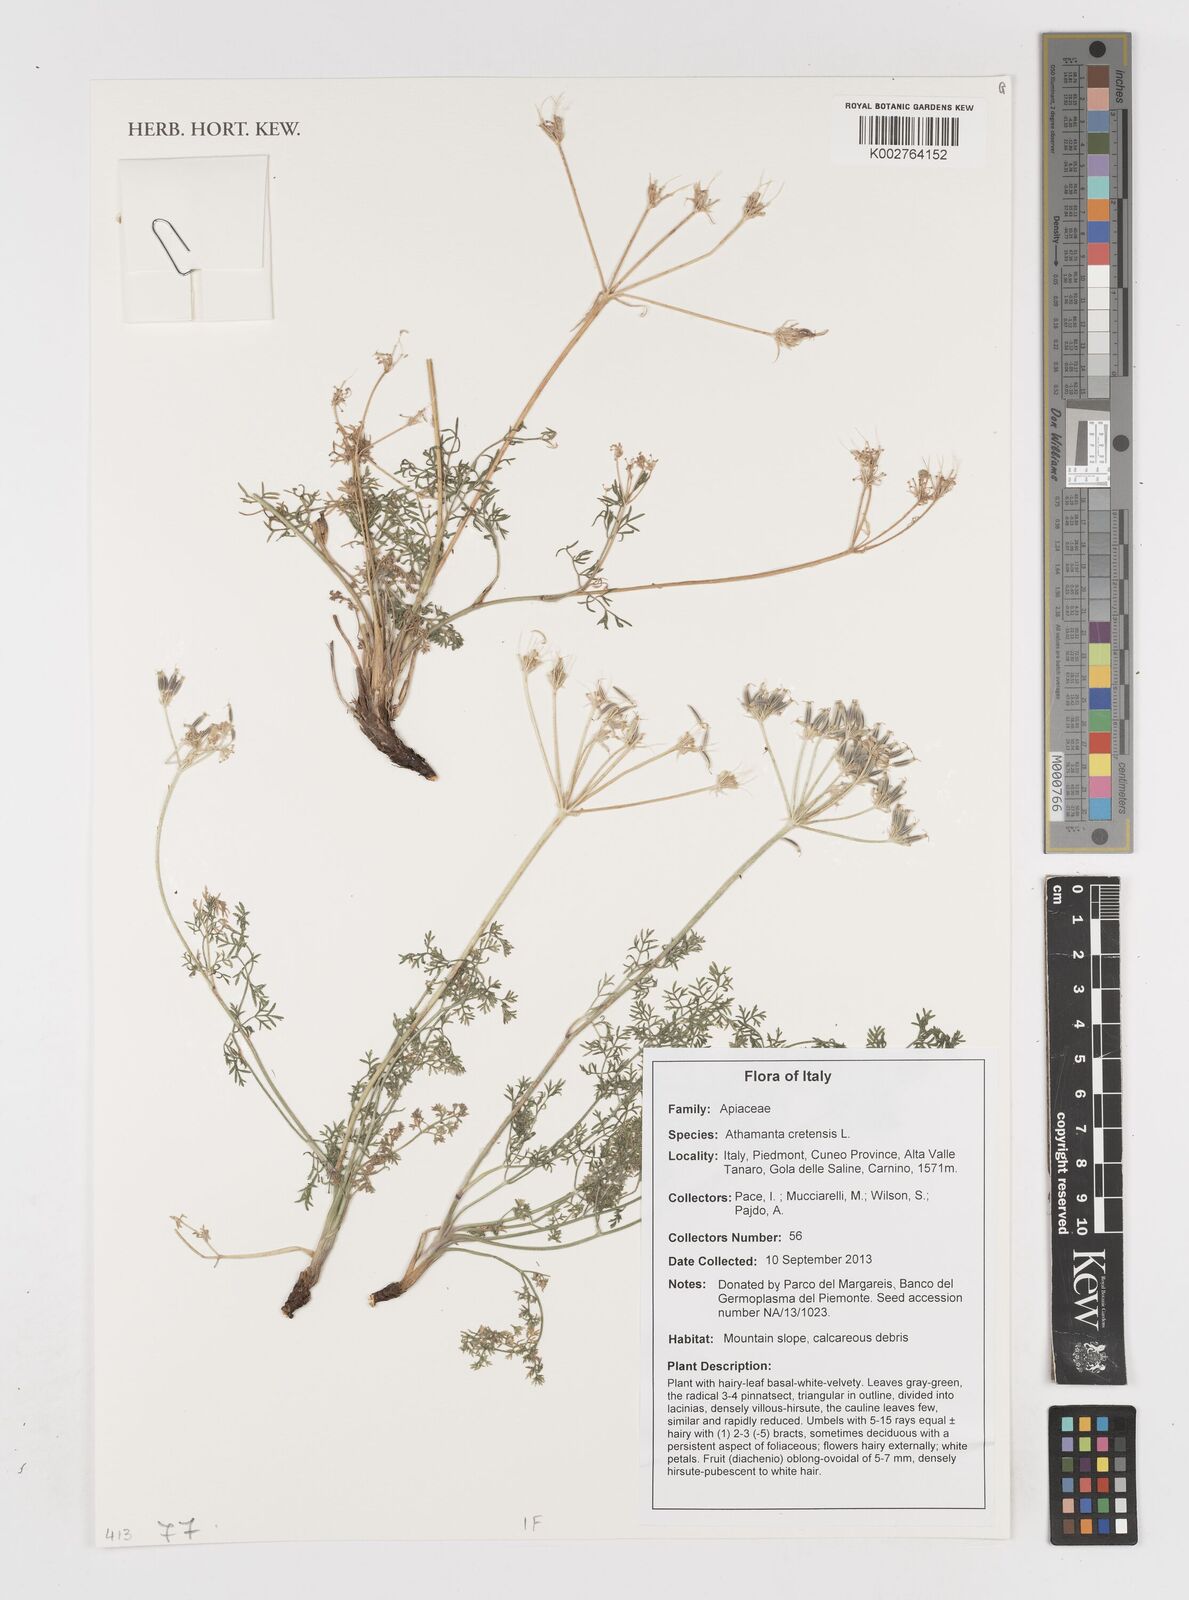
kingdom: Plantae
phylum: Tracheophyta
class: Magnoliopsida
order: Apiales
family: Apiaceae
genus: Athamanta
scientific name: Athamanta cretensis
